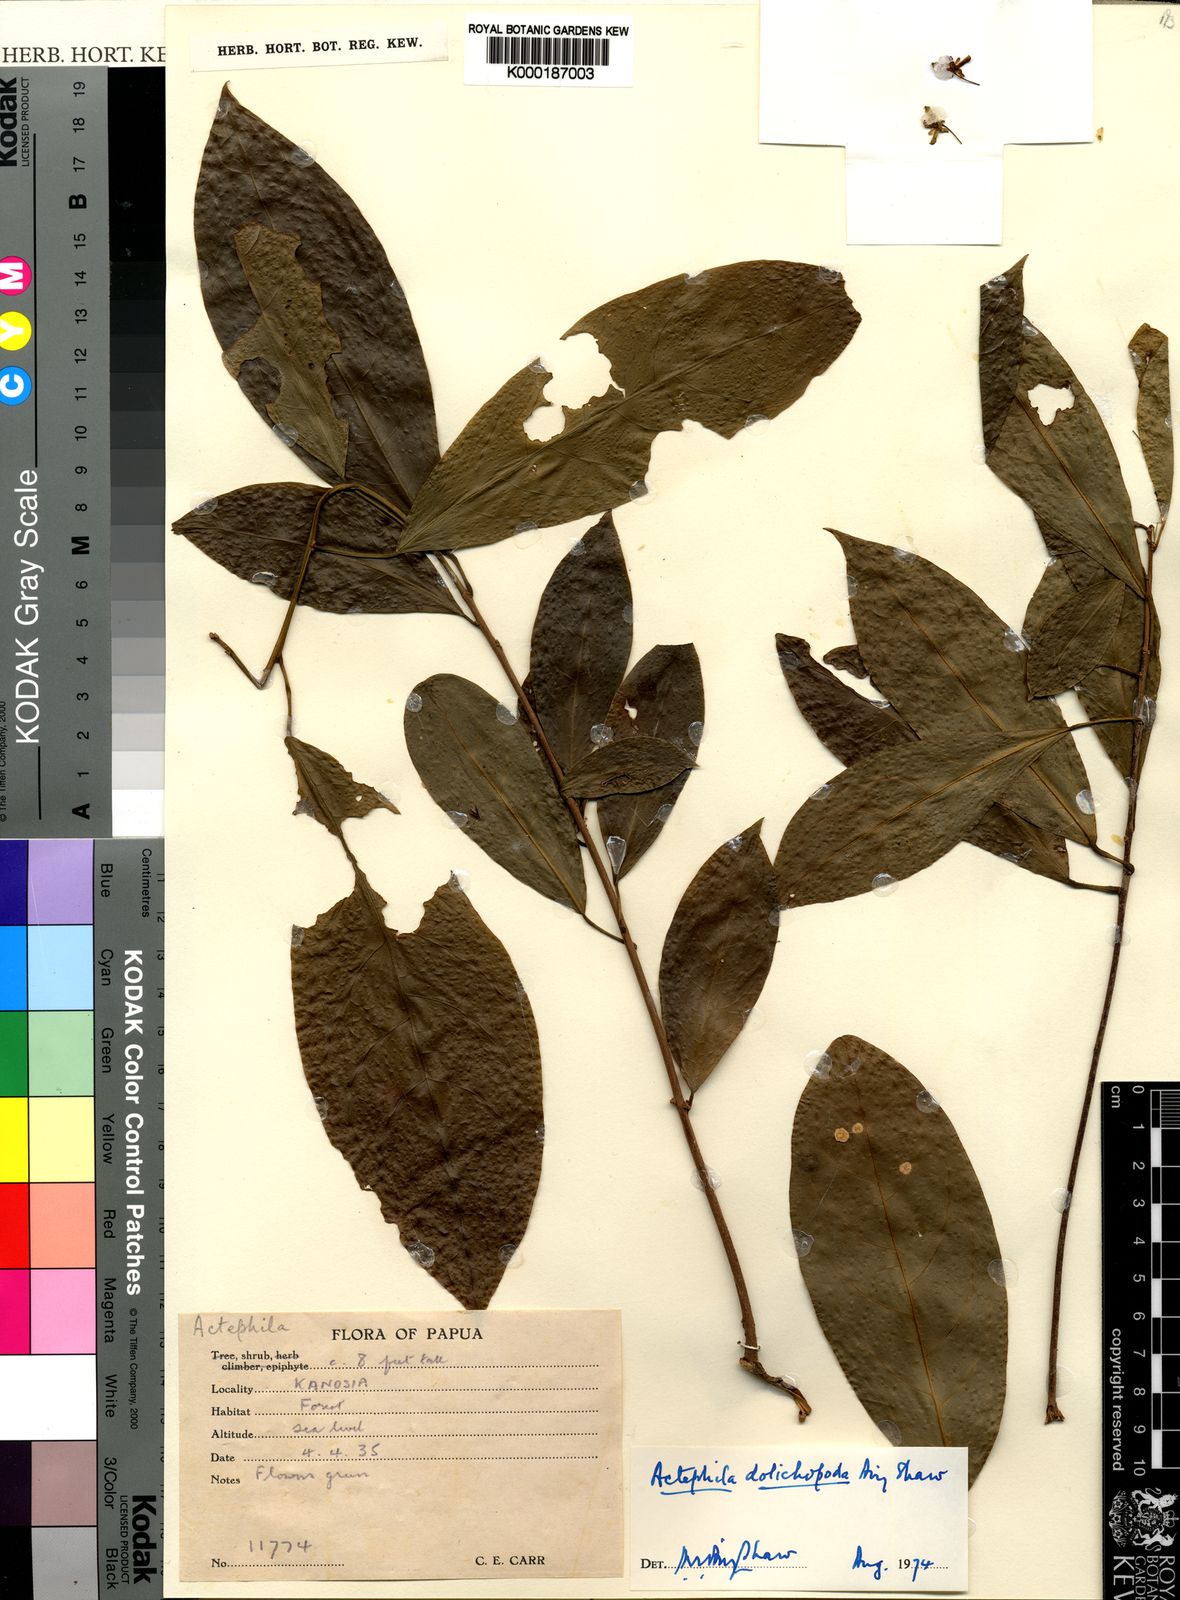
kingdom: Plantae
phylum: Tracheophyta
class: Magnoliopsida
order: Malpighiales
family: Phyllanthaceae
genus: Actephila
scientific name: Actephila dolichopoda
